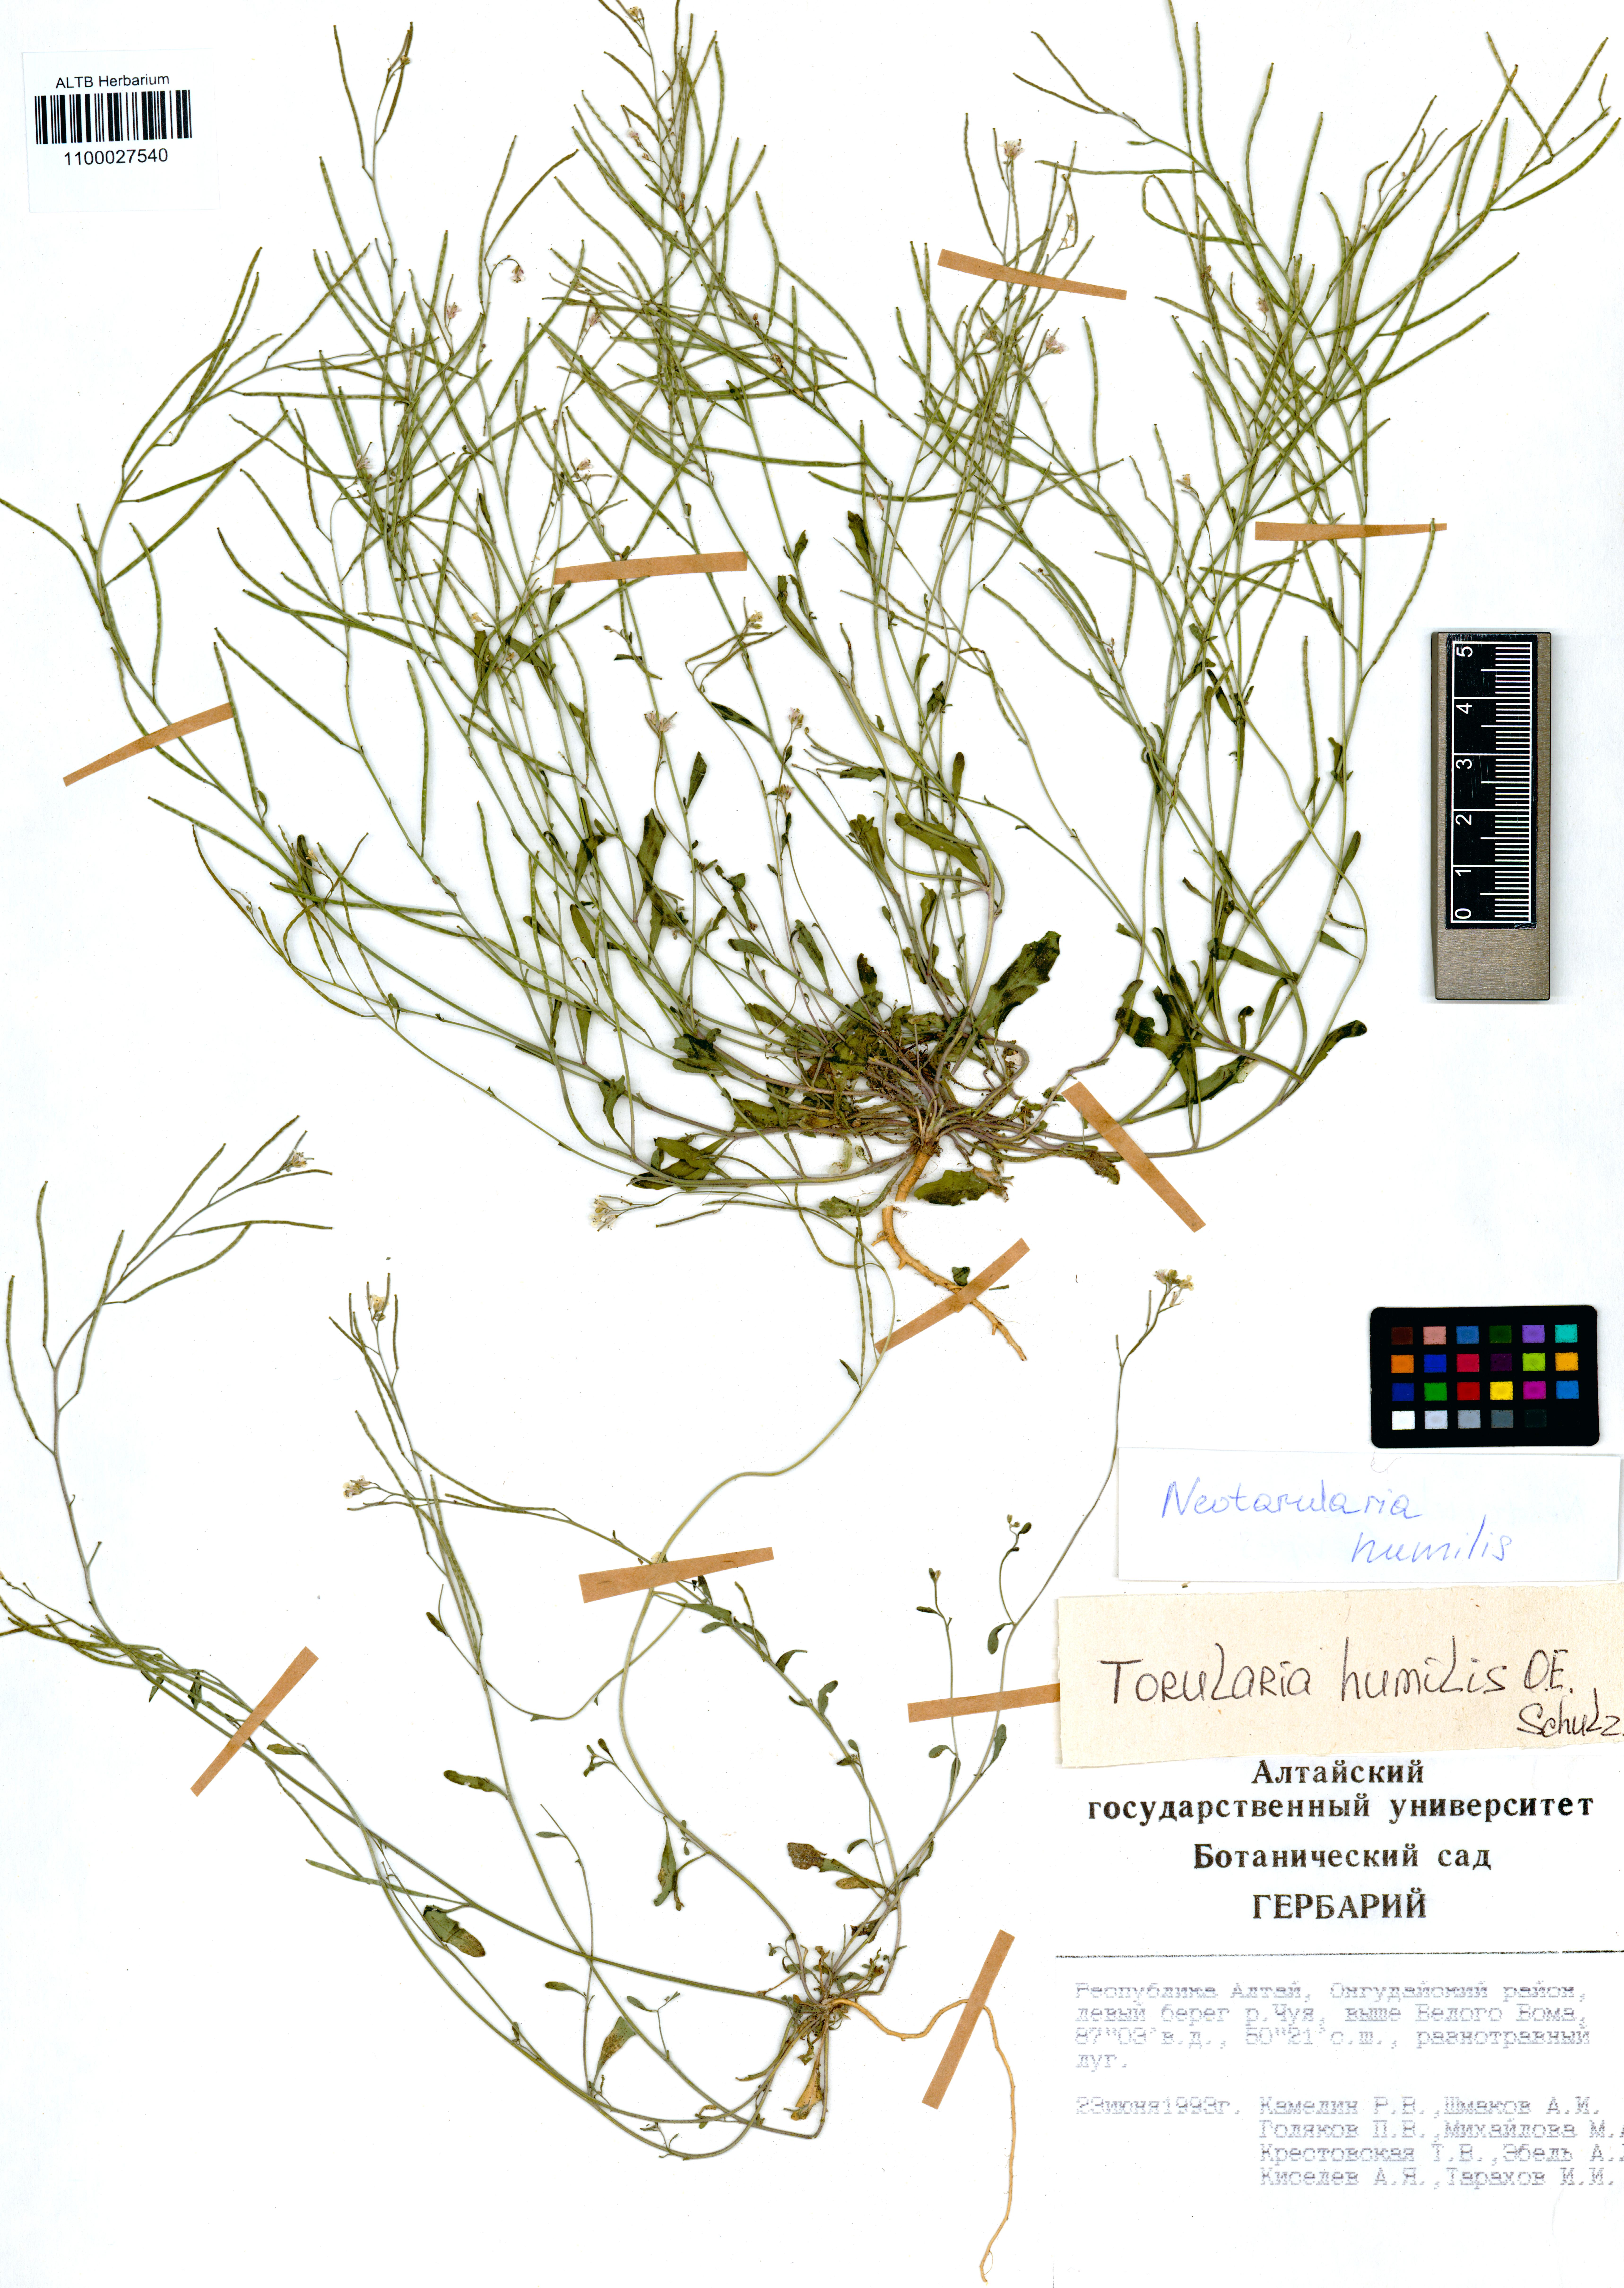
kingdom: Plantae
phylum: Tracheophyta
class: Magnoliopsida
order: Brassicales
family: Brassicaceae
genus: Braya
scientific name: Braya humilis
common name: Alpine northern rockcress
